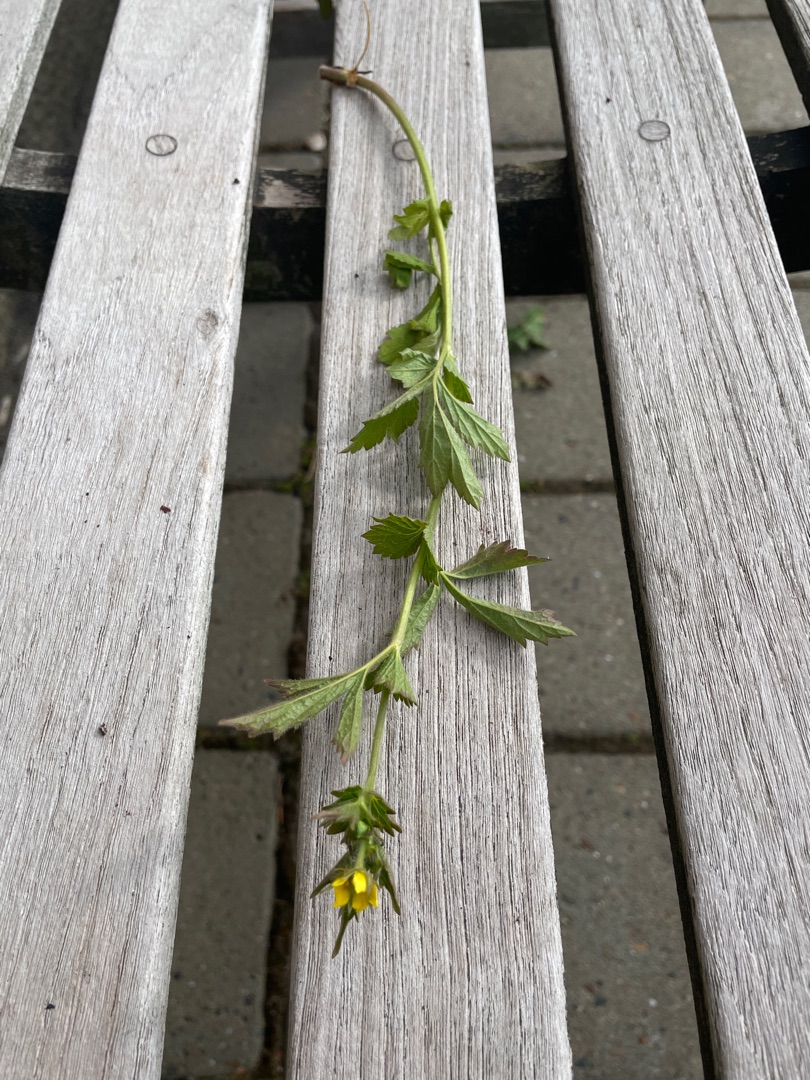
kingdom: Plantae
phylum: Tracheophyta
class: Magnoliopsida
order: Rosales
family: Rosaceae
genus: Geum
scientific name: Geum urbanum
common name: Feber-nellikerod
